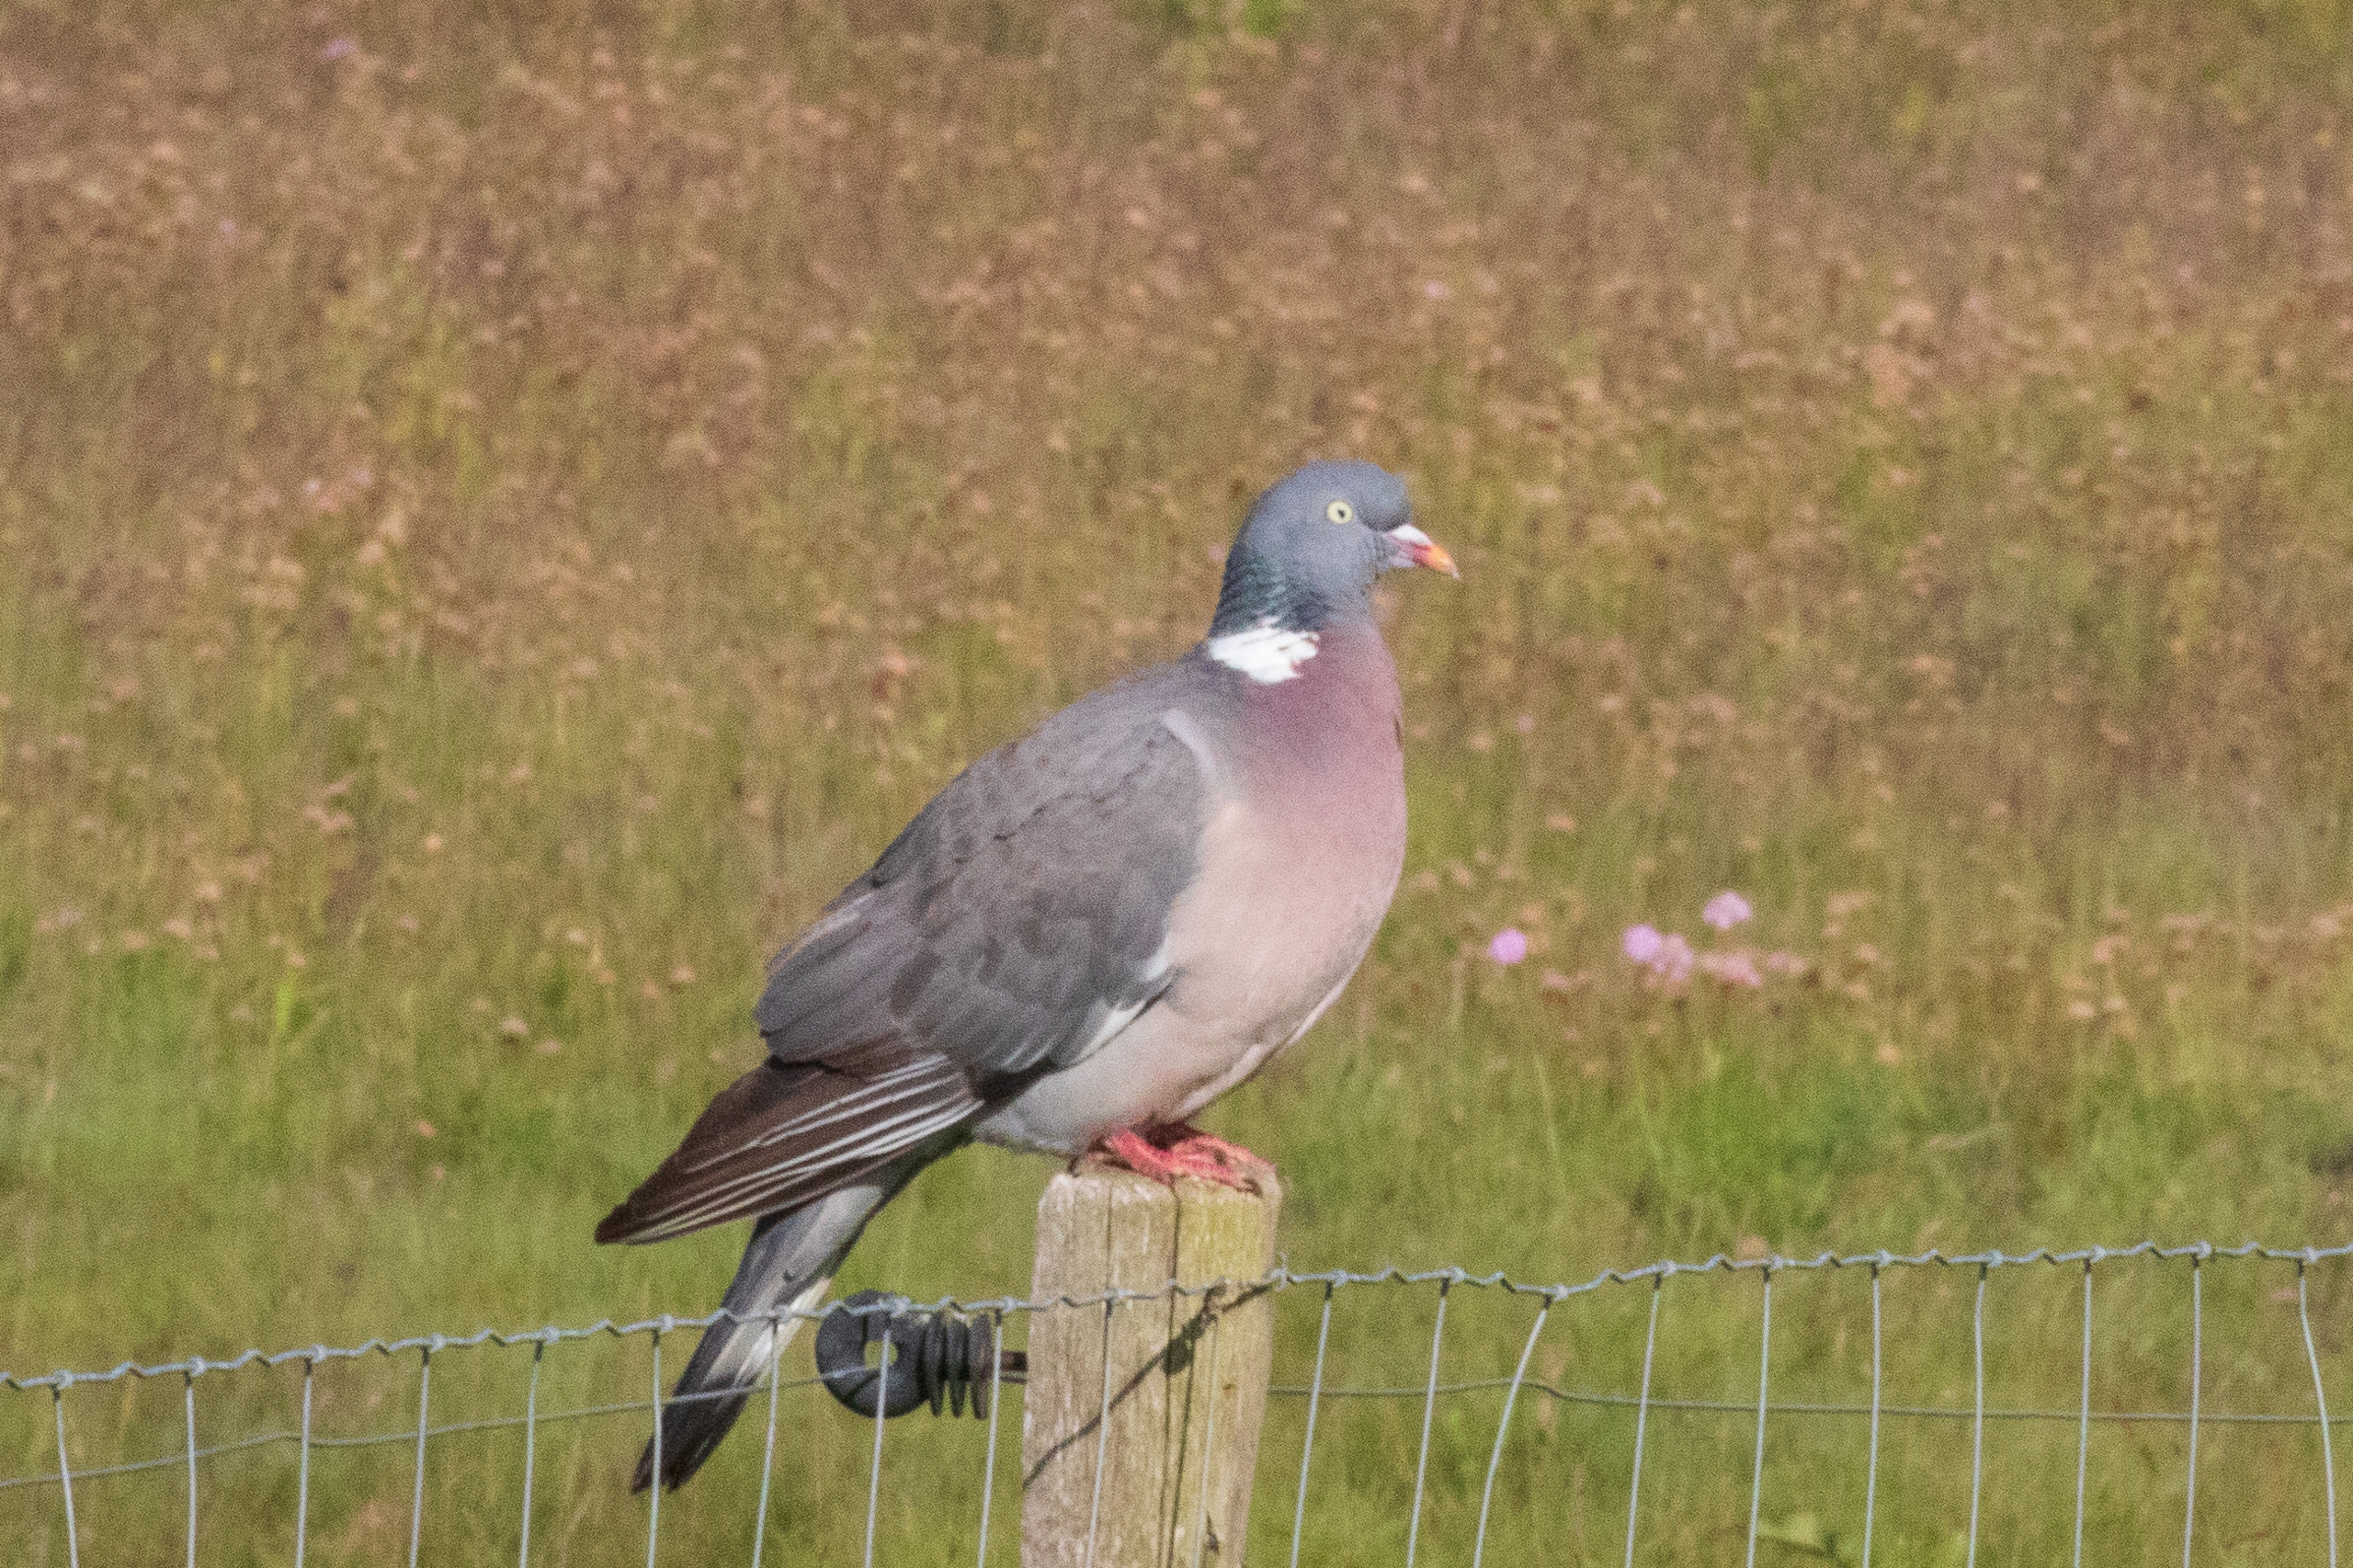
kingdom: Animalia
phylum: Chordata
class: Aves
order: Columbiformes
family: Columbidae
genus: Columba
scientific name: Columba palumbus
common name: Ringdue
